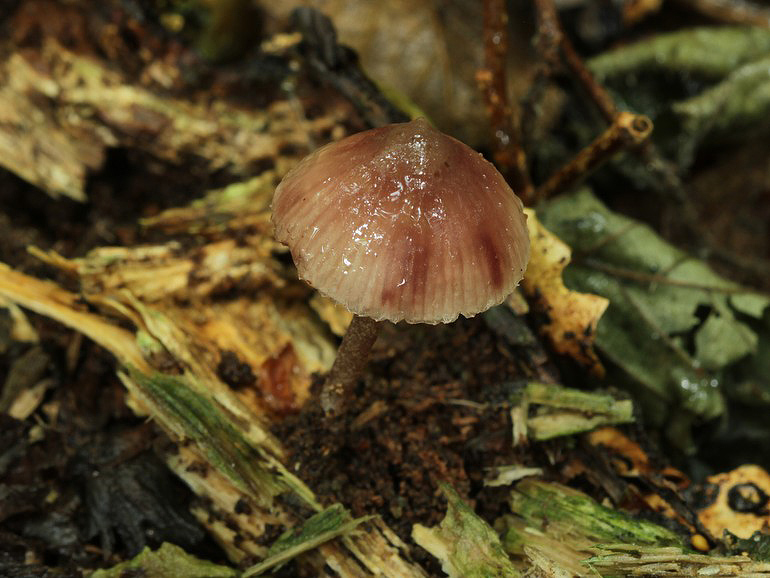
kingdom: Fungi
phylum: Basidiomycota
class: Agaricomycetes
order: Agaricales
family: Mycenaceae
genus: Mycena
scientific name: Mycena haematopus
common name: blødende huesvamp
